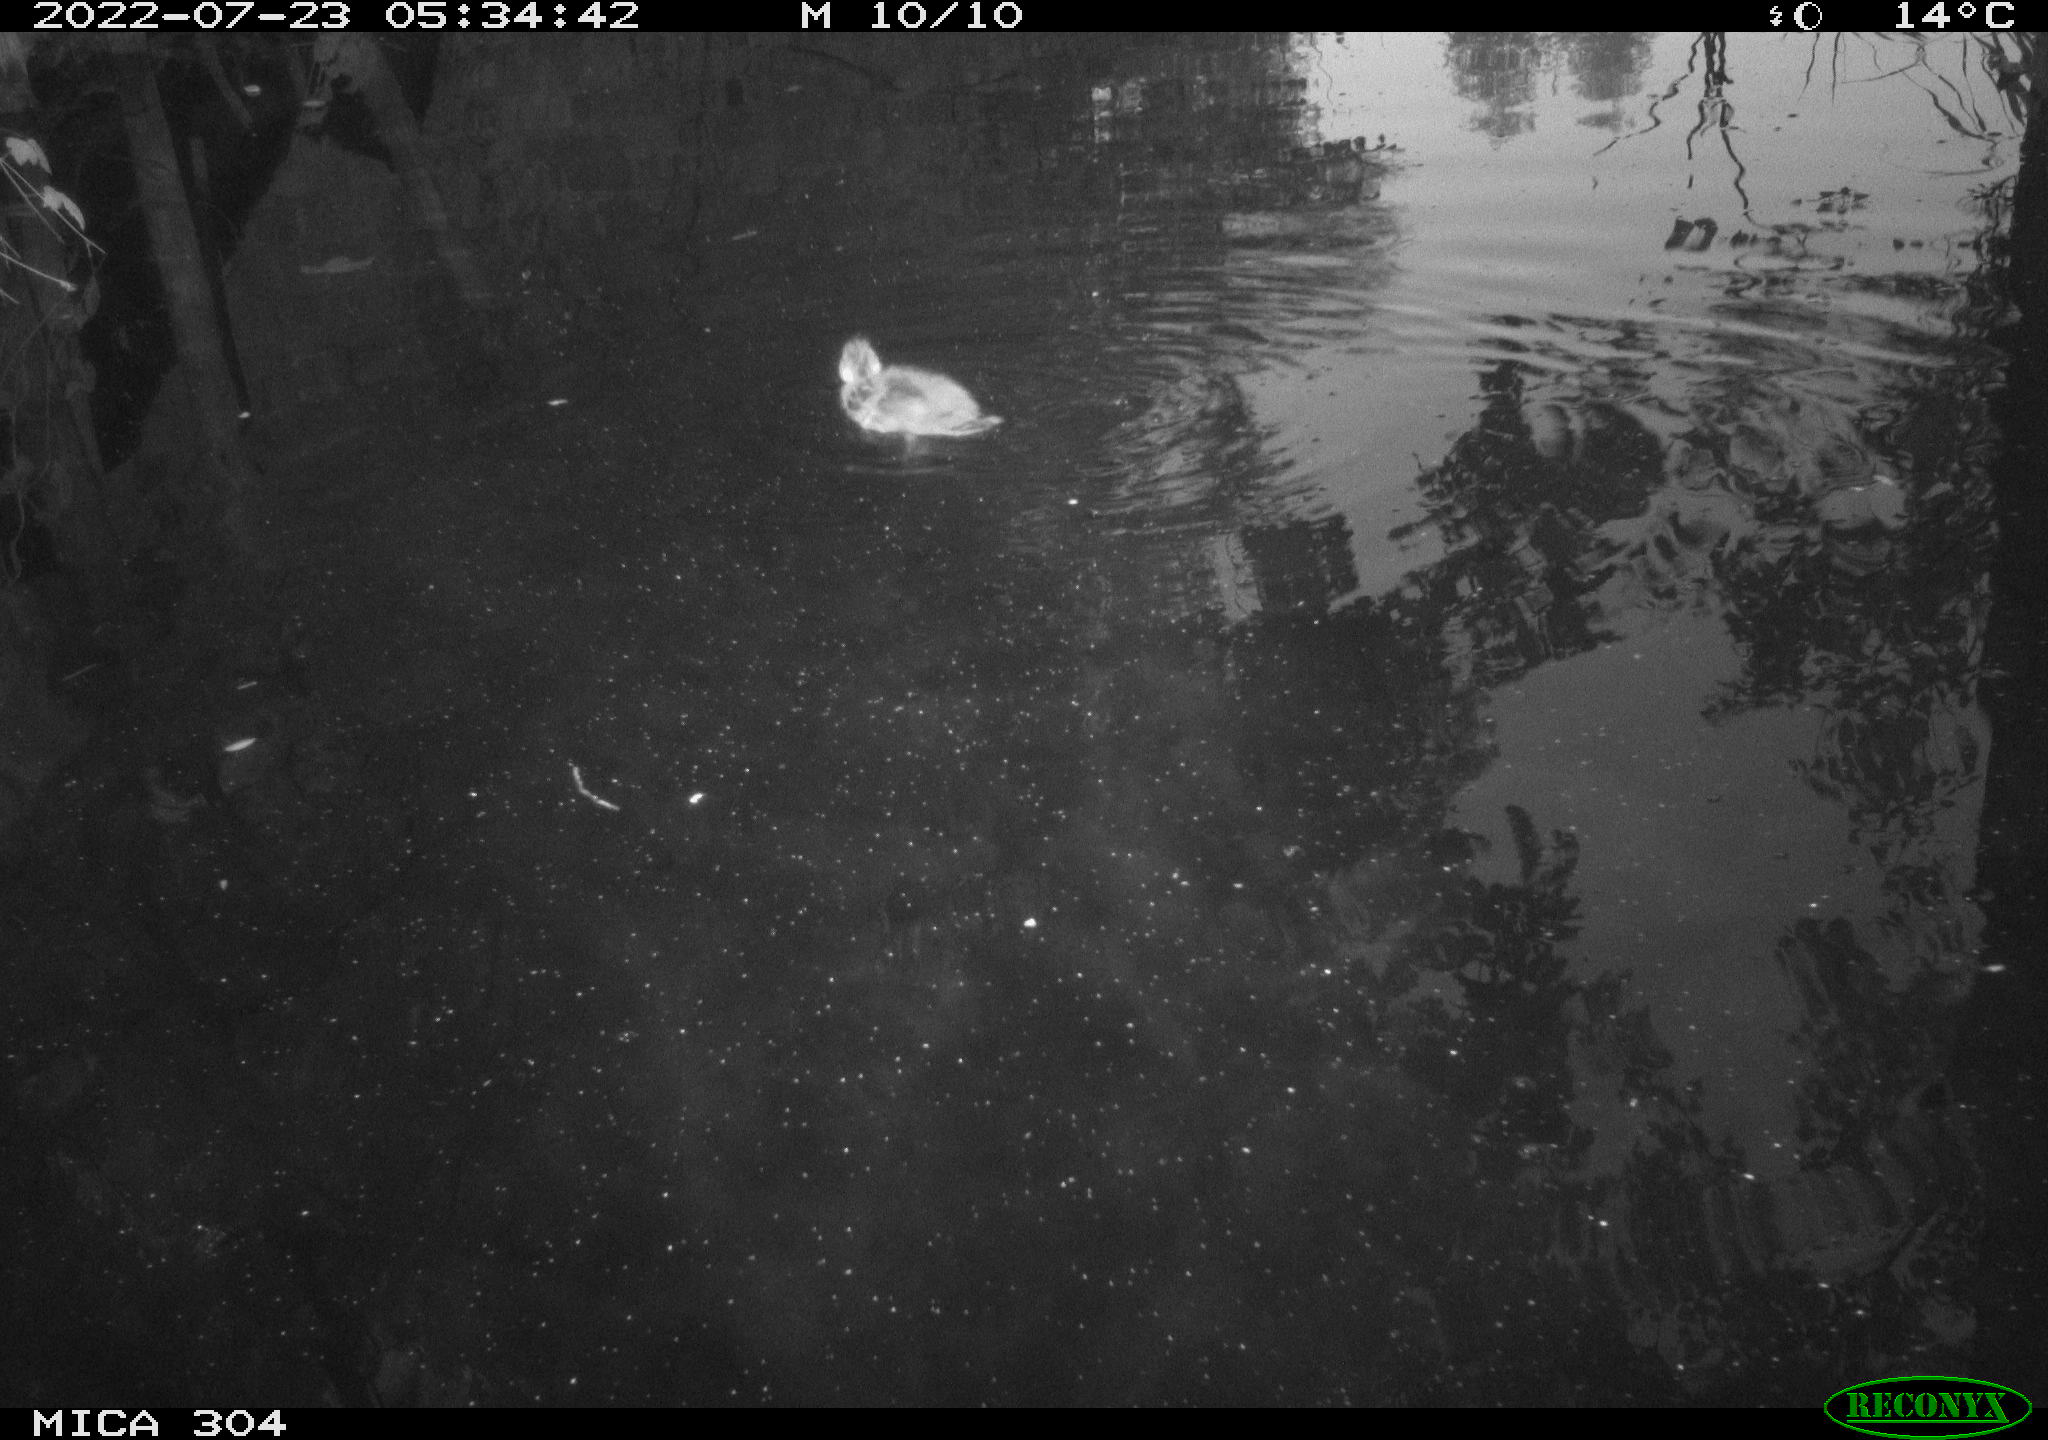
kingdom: Animalia
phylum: Chordata
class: Aves
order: Anseriformes
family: Anatidae
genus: Anas
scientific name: Anas platyrhynchos
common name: Mallard
